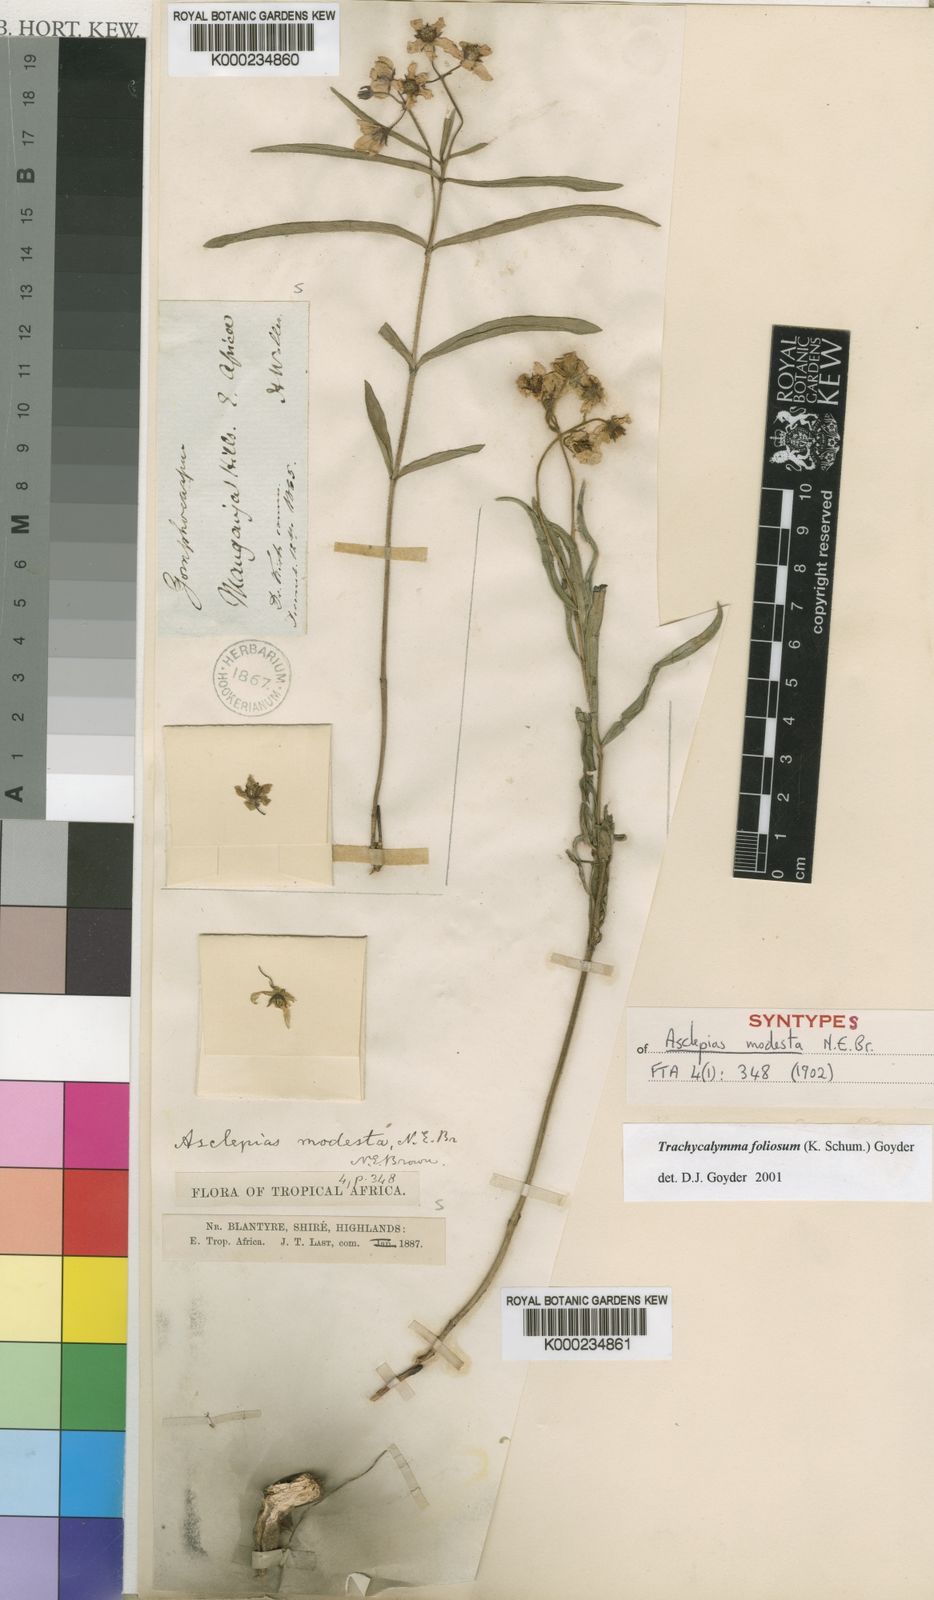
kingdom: Plantae
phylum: Tracheophyta
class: Magnoliopsida
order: Gentianales
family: Apocynaceae
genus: Asclepias
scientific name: Asclepias foliosa
